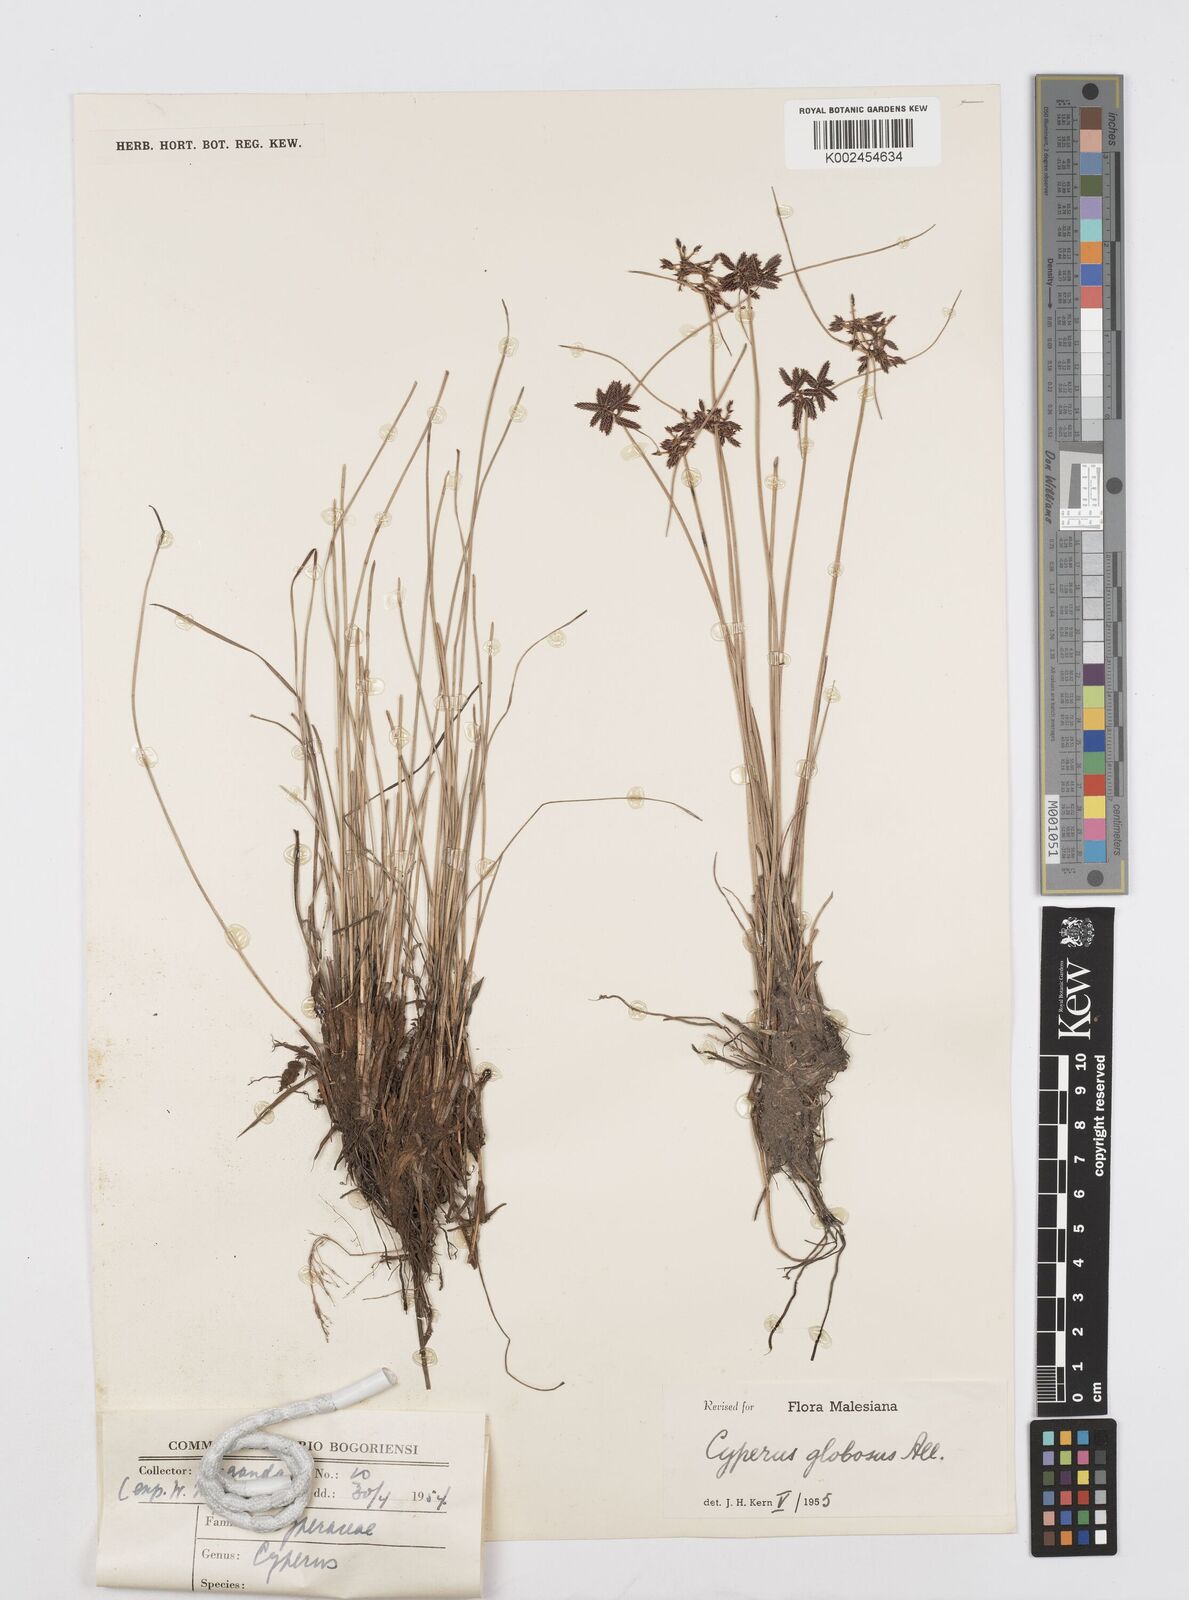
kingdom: Plantae
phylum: Tracheophyta
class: Liliopsida
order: Poales
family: Cyperaceae
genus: Cyperus
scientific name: Cyperus flavidus
